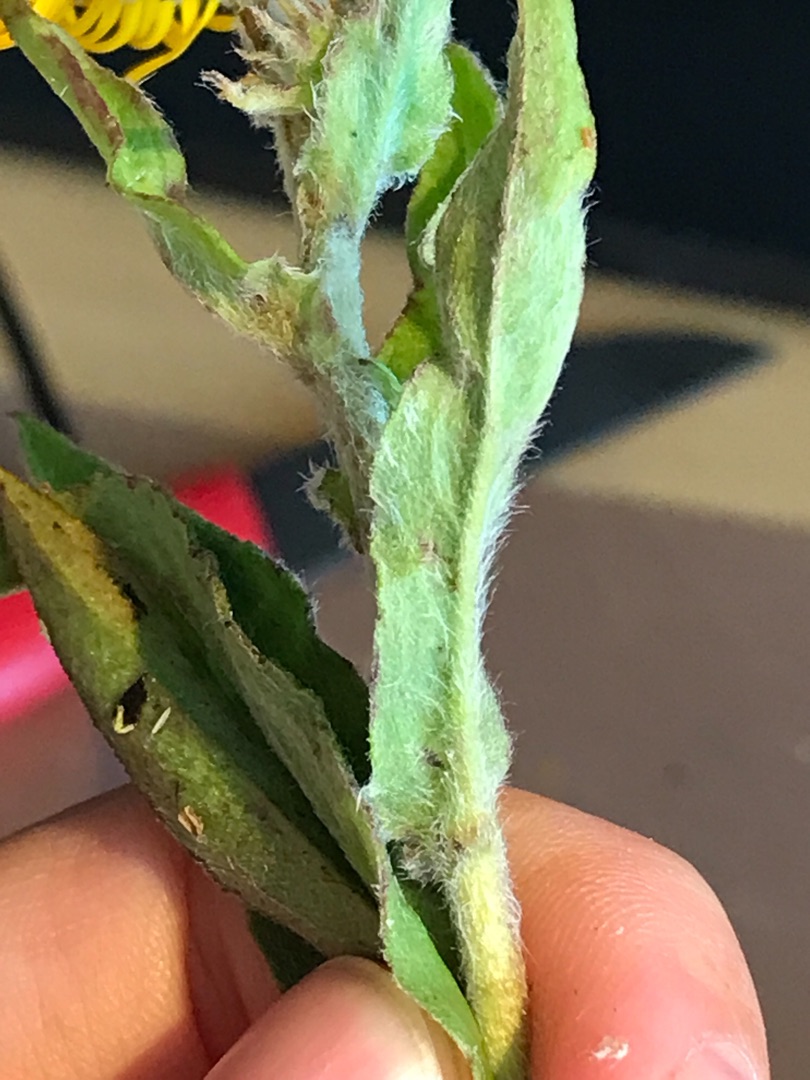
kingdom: Plantae
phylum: Tracheophyta
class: Magnoliopsida
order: Asterales
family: Asteraceae
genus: Pentanema
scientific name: Pentanema britannicum
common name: Soløje-alant
